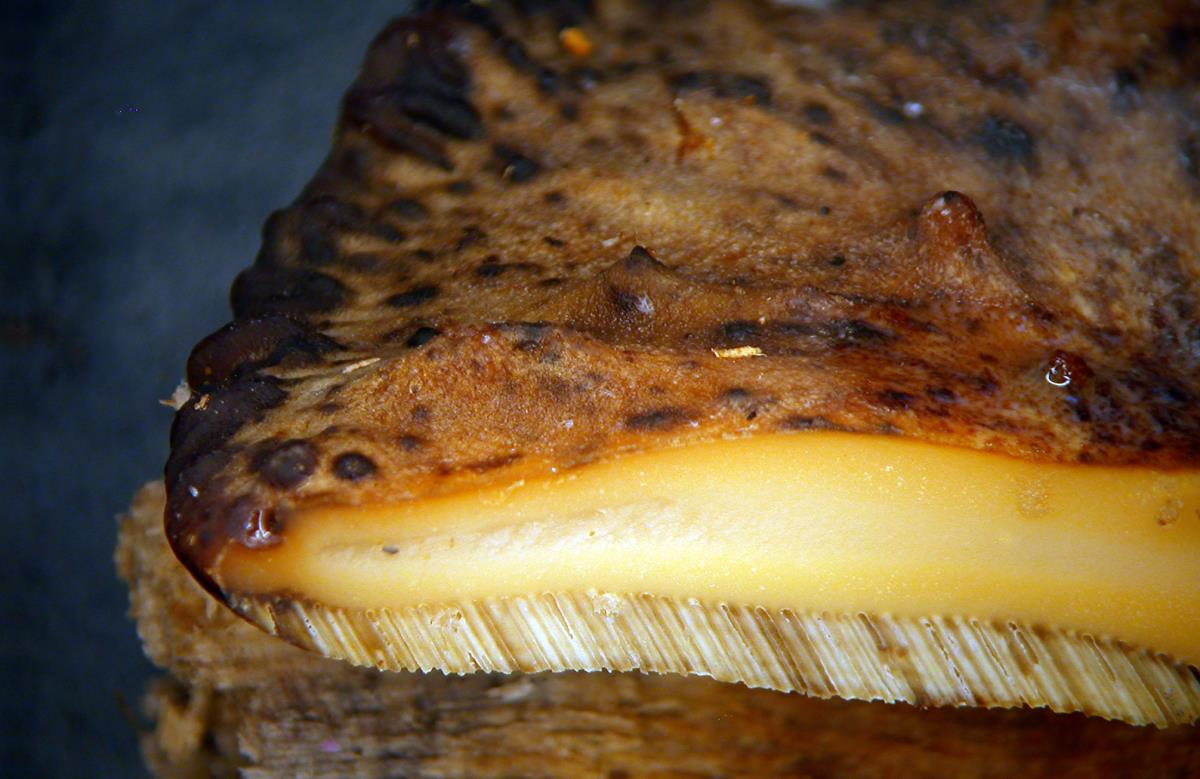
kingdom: Fungi
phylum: Basidiomycota
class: Agaricomycetes
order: Polyporales
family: Polyporaceae
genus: Polyporus
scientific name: Polyporus nigrocristatus
